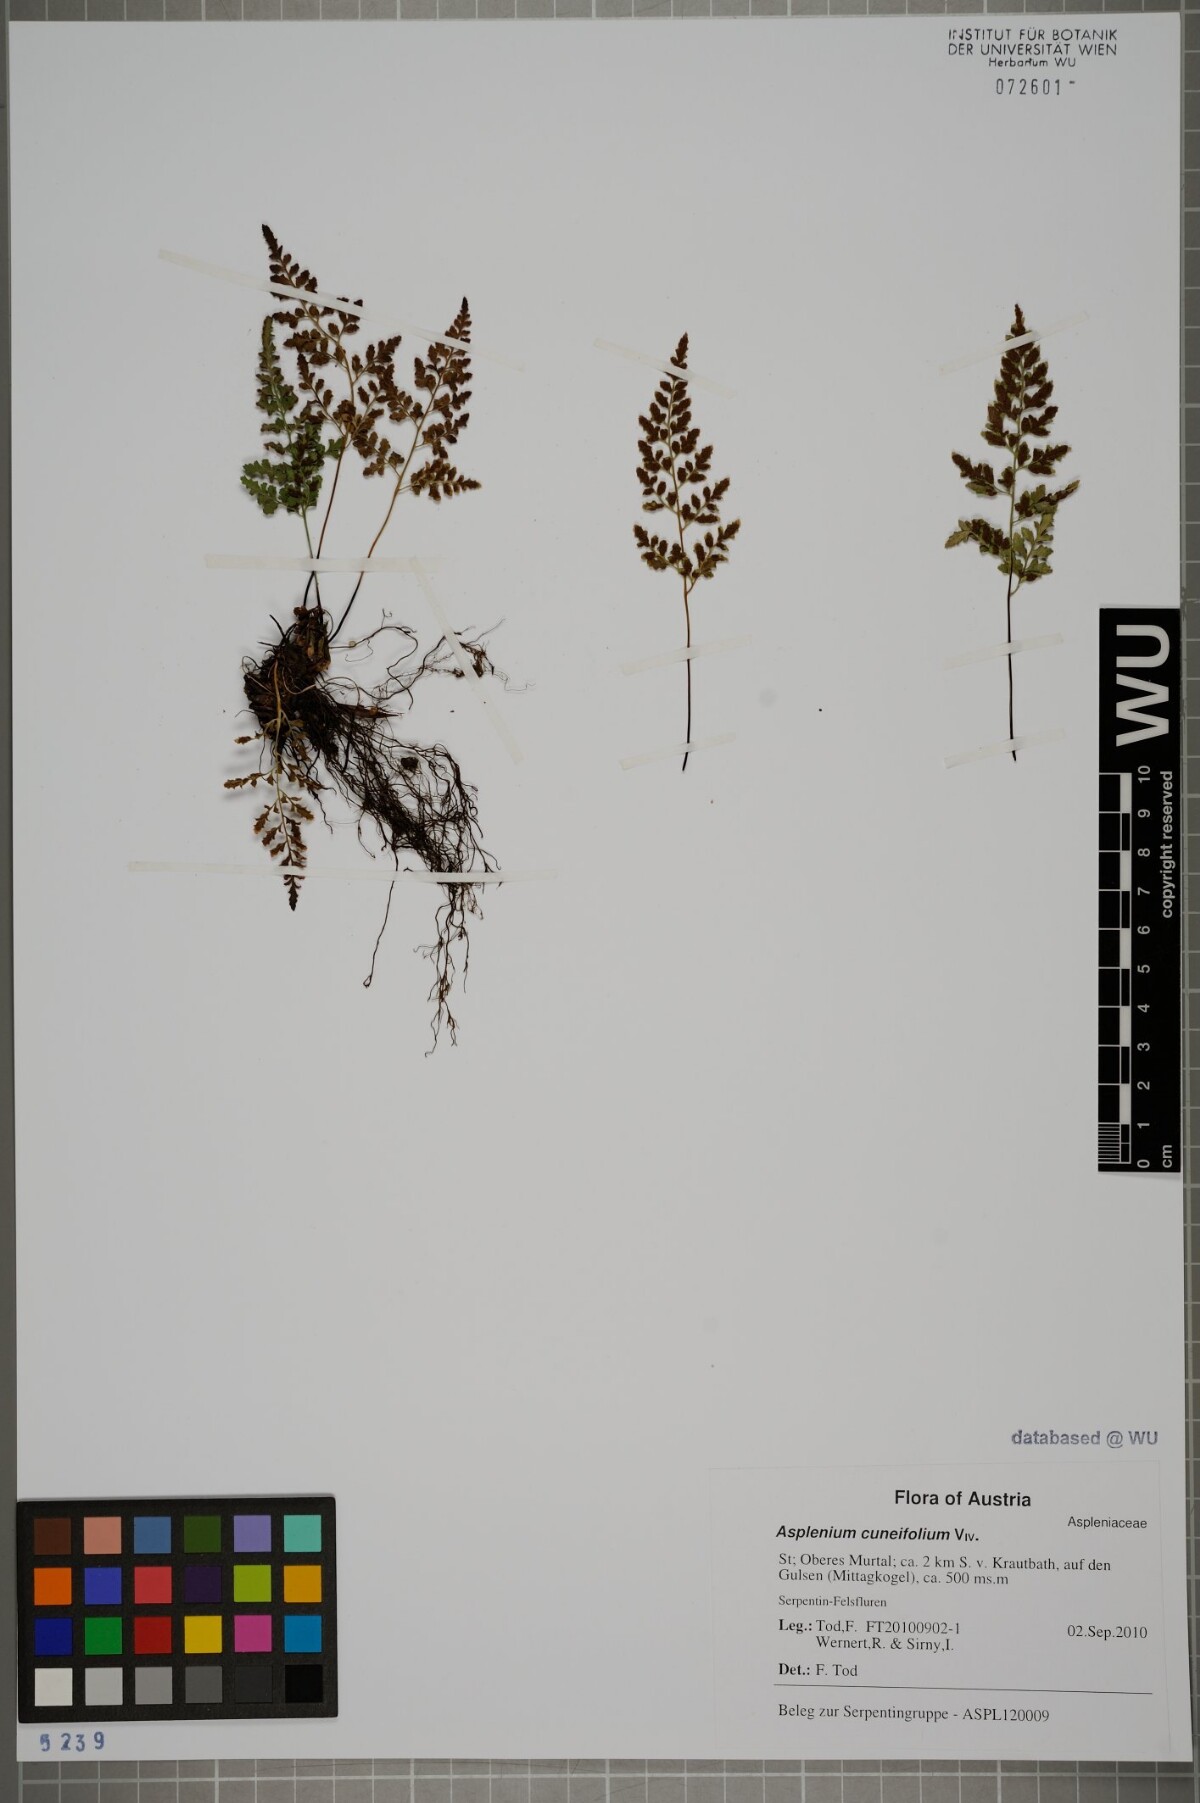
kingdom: Plantae
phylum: Tracheophyta
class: Polypodiopsida
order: Polypodiales
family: Aspleniaceae
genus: Asplenium
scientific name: Asplenium cuneifolium
